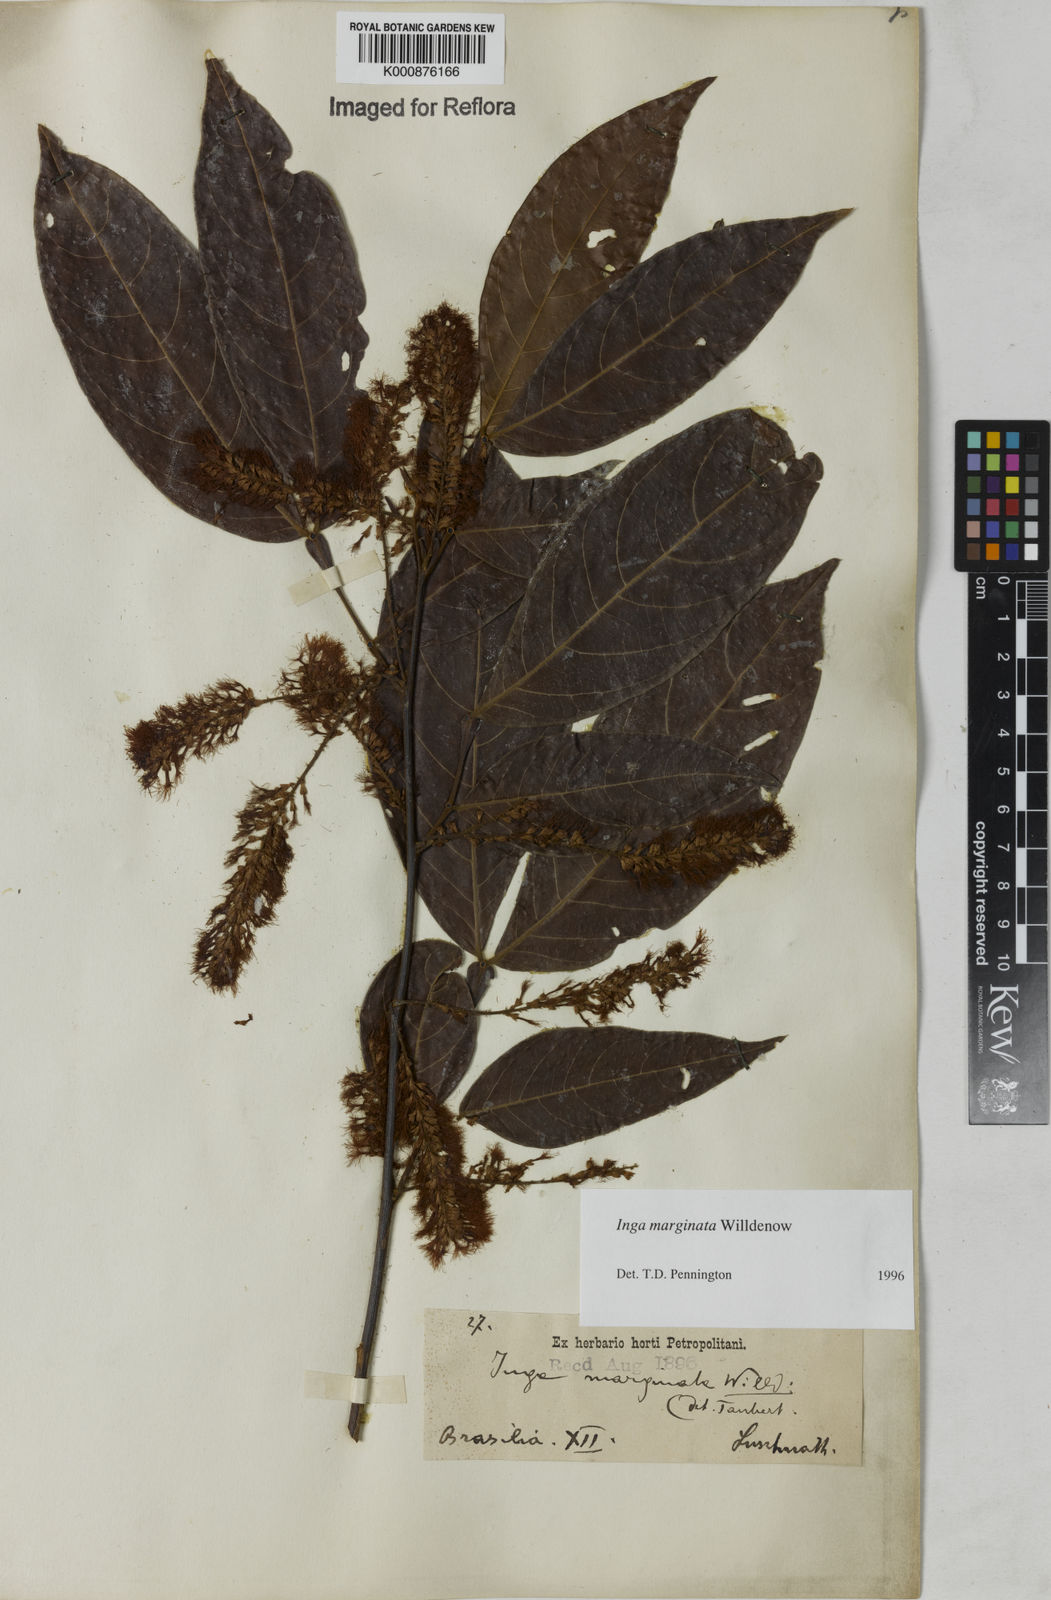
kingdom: Plantae
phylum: Tracheophyta
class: Magnoliopsida
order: Fabales
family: Fabaceae
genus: Inga
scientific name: Inga marginata
